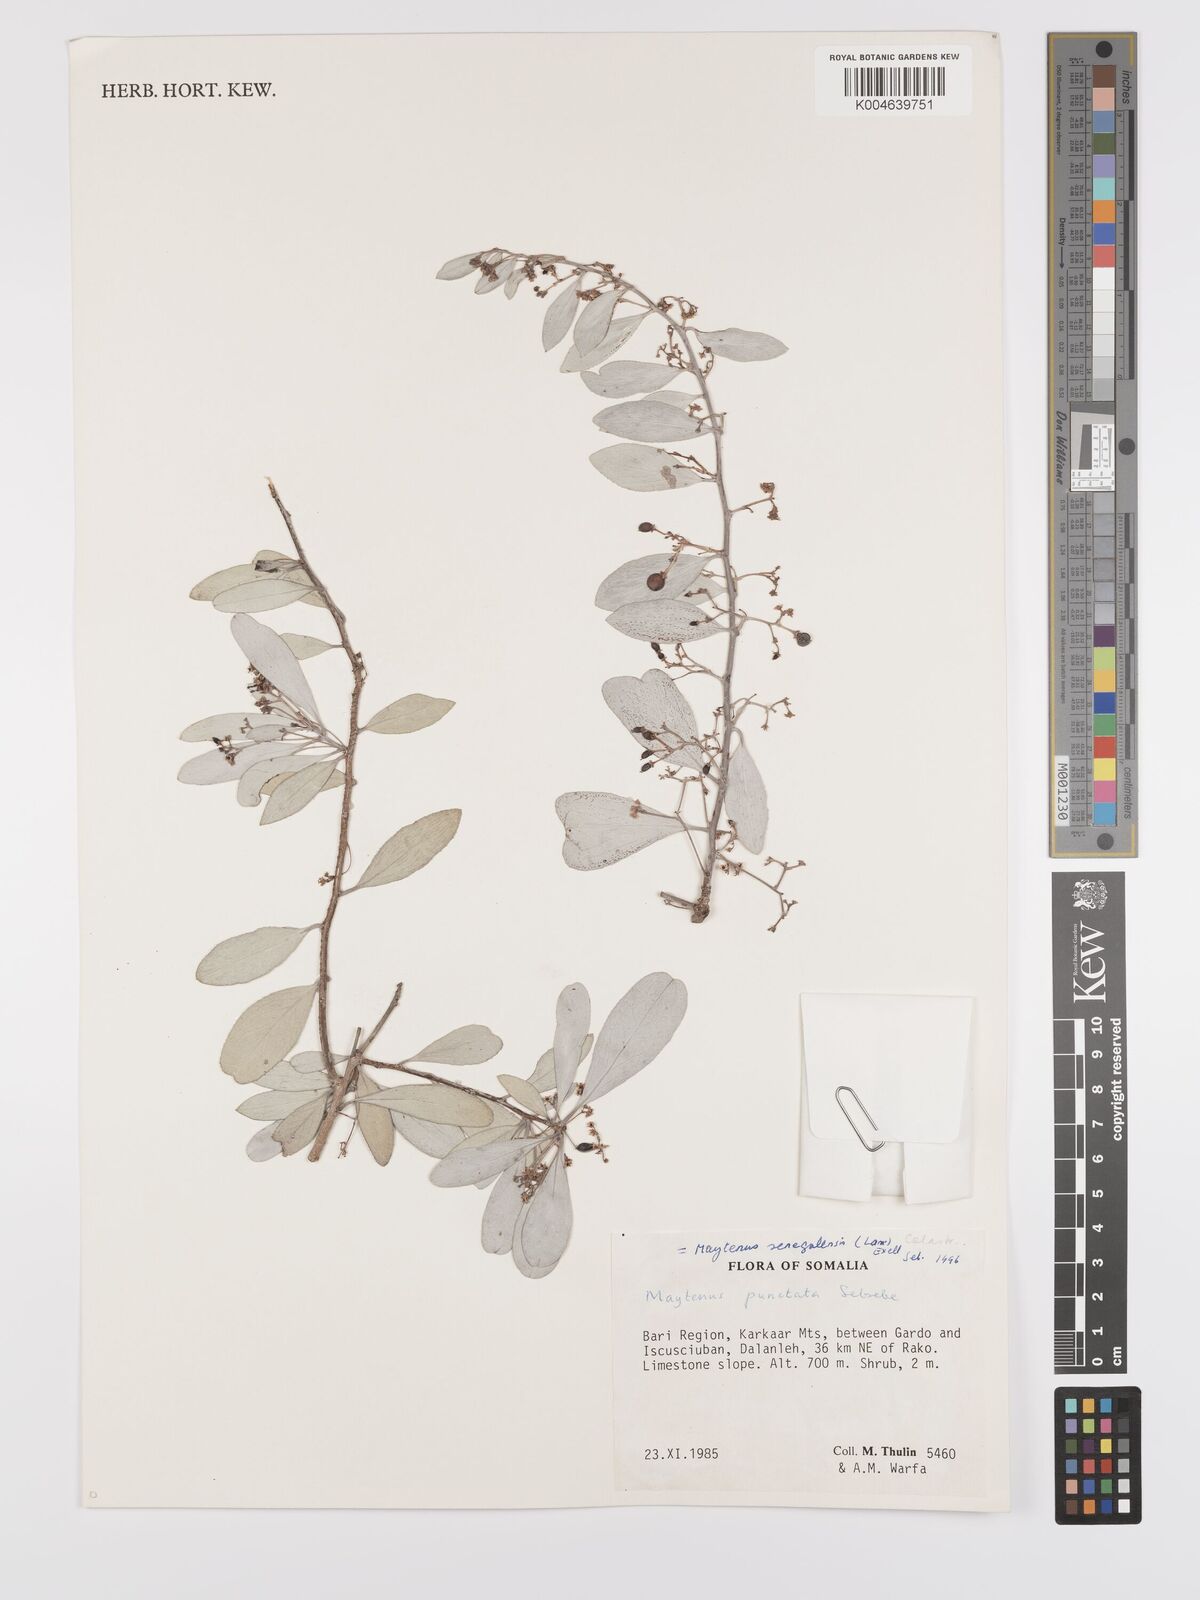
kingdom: Plantae
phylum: Tracheophyta
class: Magnoliopsida
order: Celastrales
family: Celastraceae
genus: Gymnosporia
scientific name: Gymnosporia punctata
